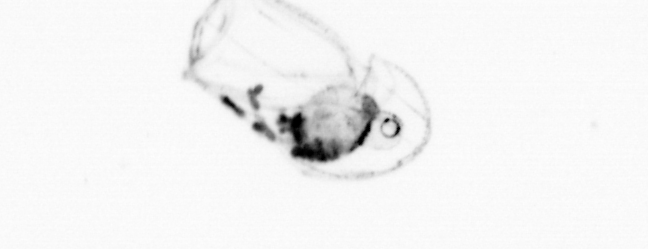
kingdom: Animalia
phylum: Cnidaria
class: Hydrozoa
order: Siphonophorae
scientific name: Siphonophorae
